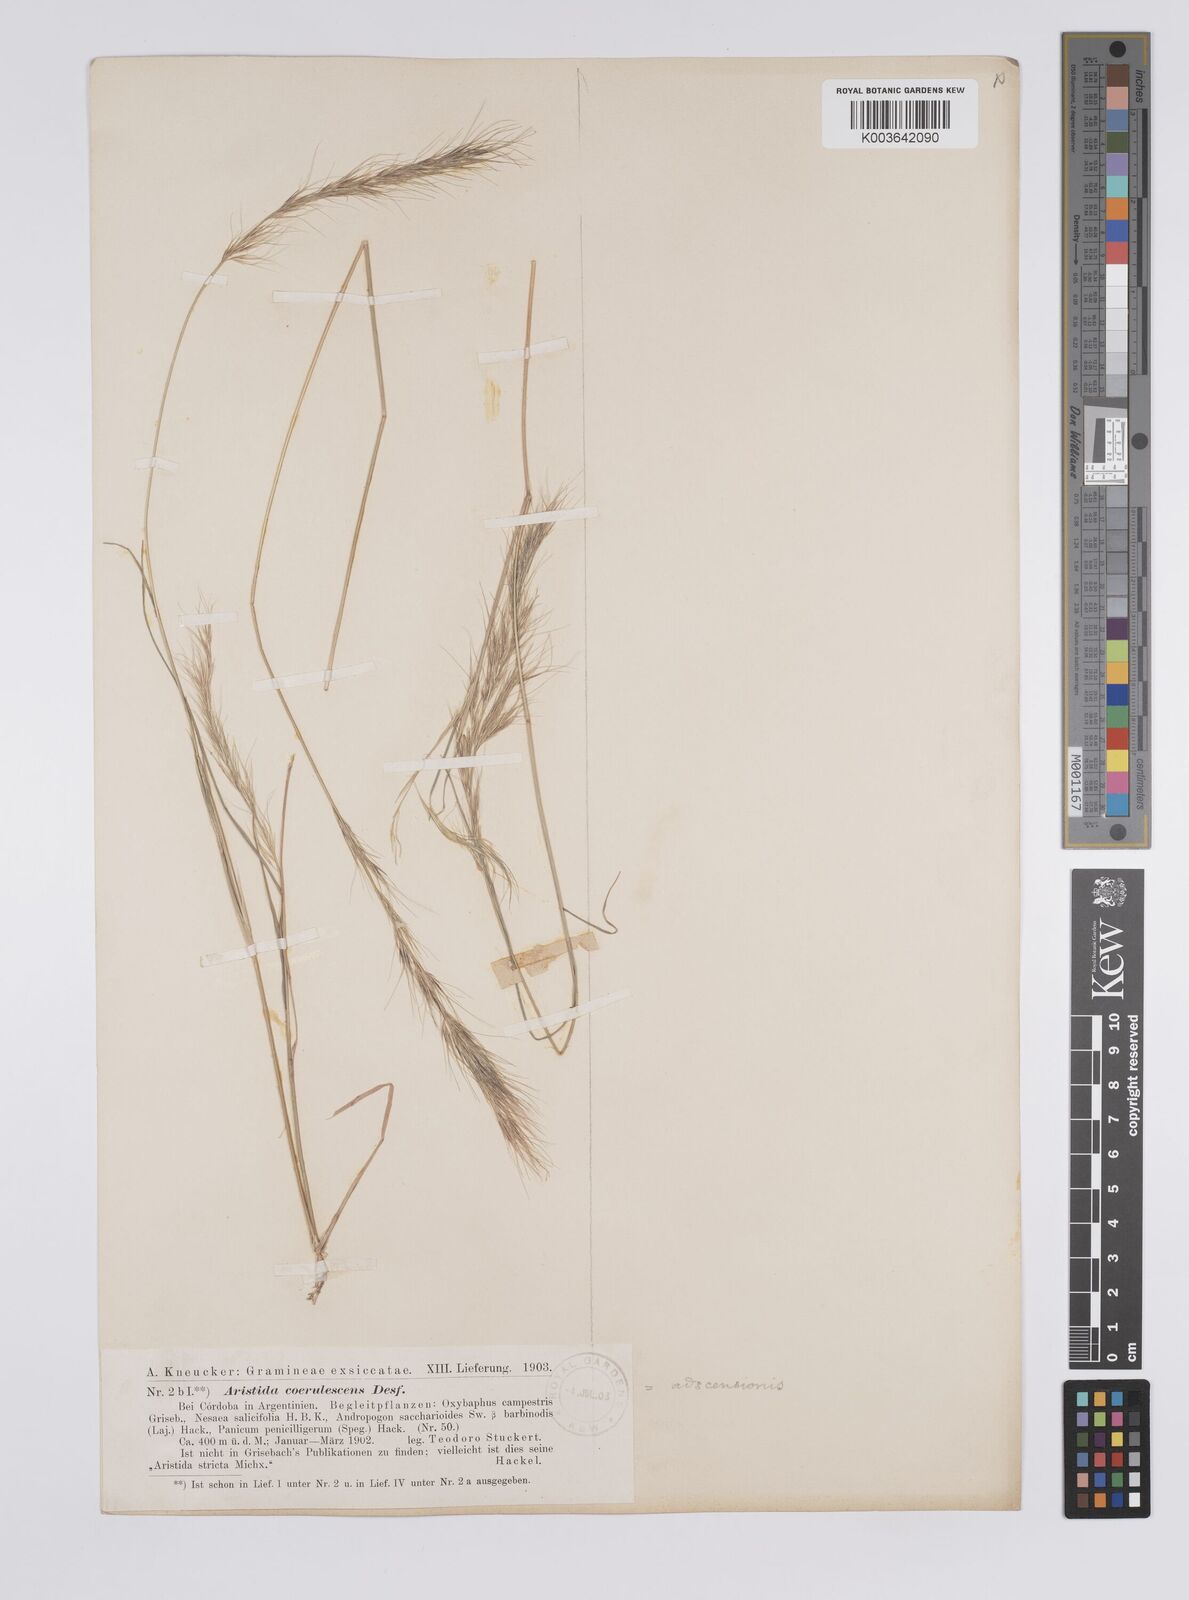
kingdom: Plantae
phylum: Tracheophyta
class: Liliopsida
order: Poales
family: Poaceae
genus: Aristida
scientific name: Aristida adscensionis
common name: Sixweeks threeawn
